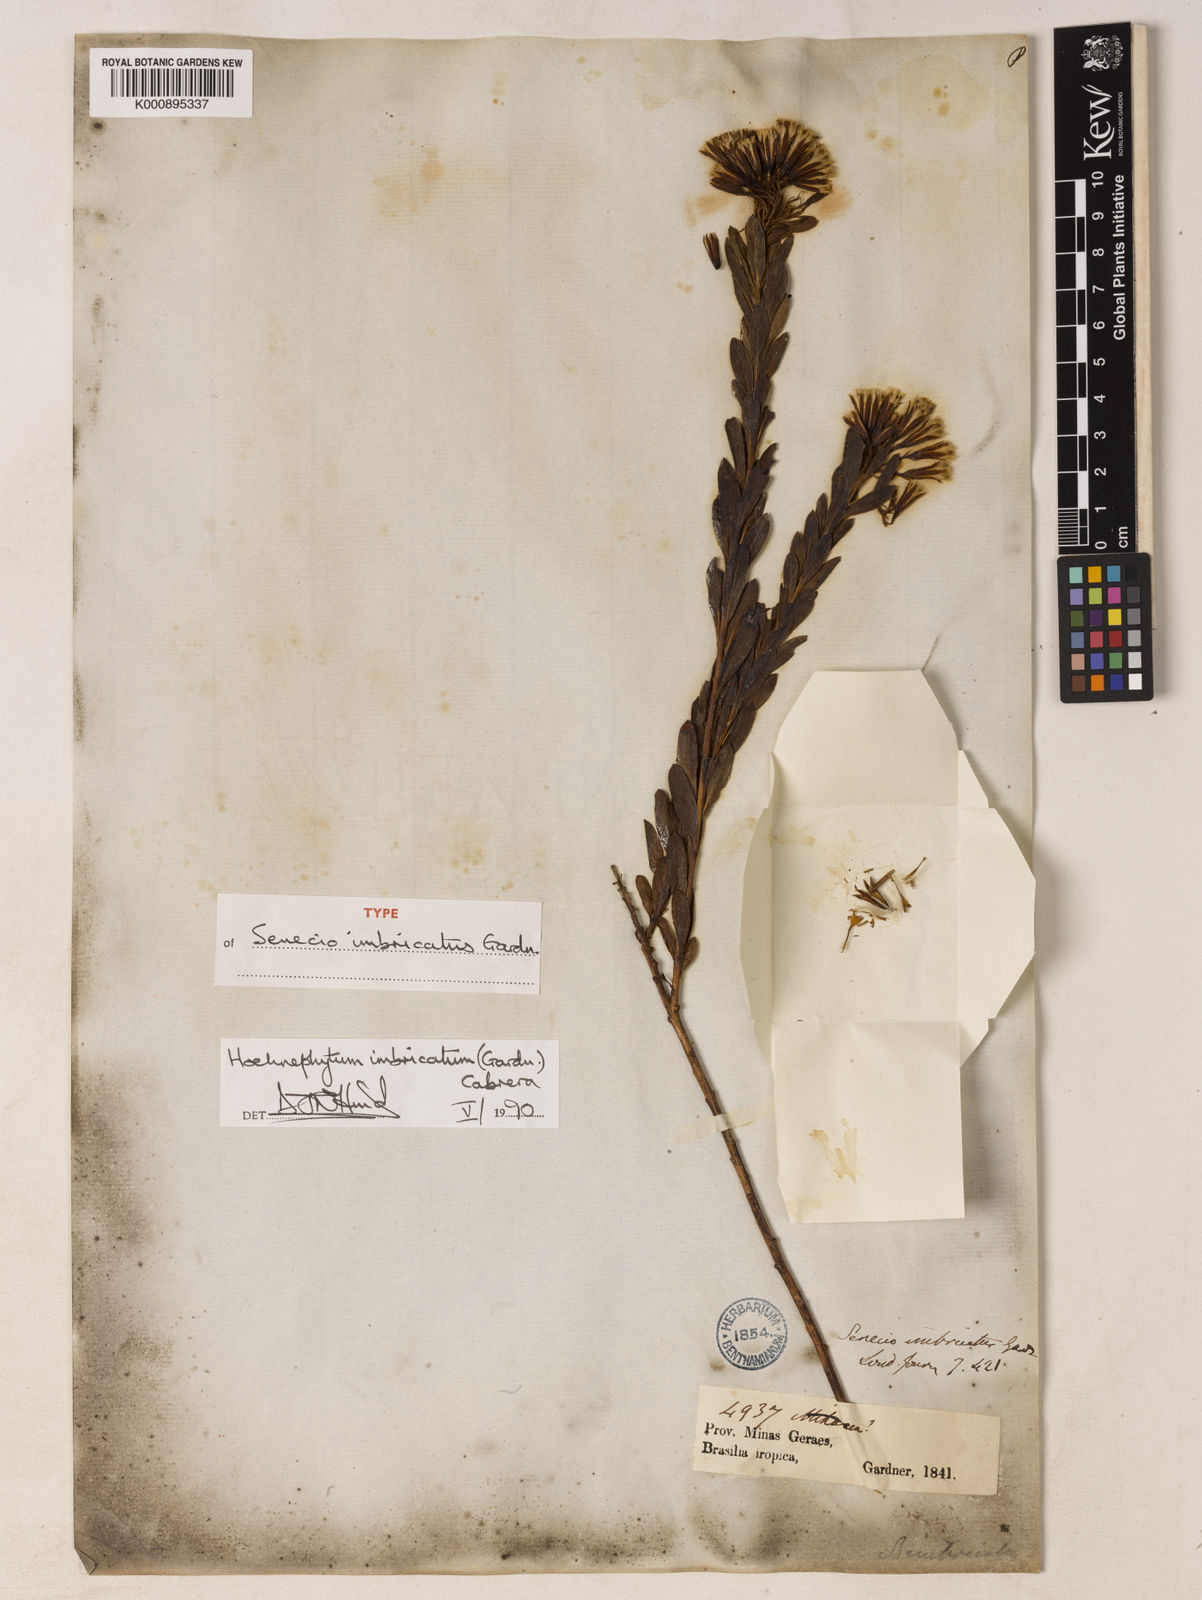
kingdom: Plantae
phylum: Tracheophyta
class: Magnoliopsida
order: Asterales
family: Asteraceae
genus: Hoehnephytum
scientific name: Hoehnephytum imbricatum
